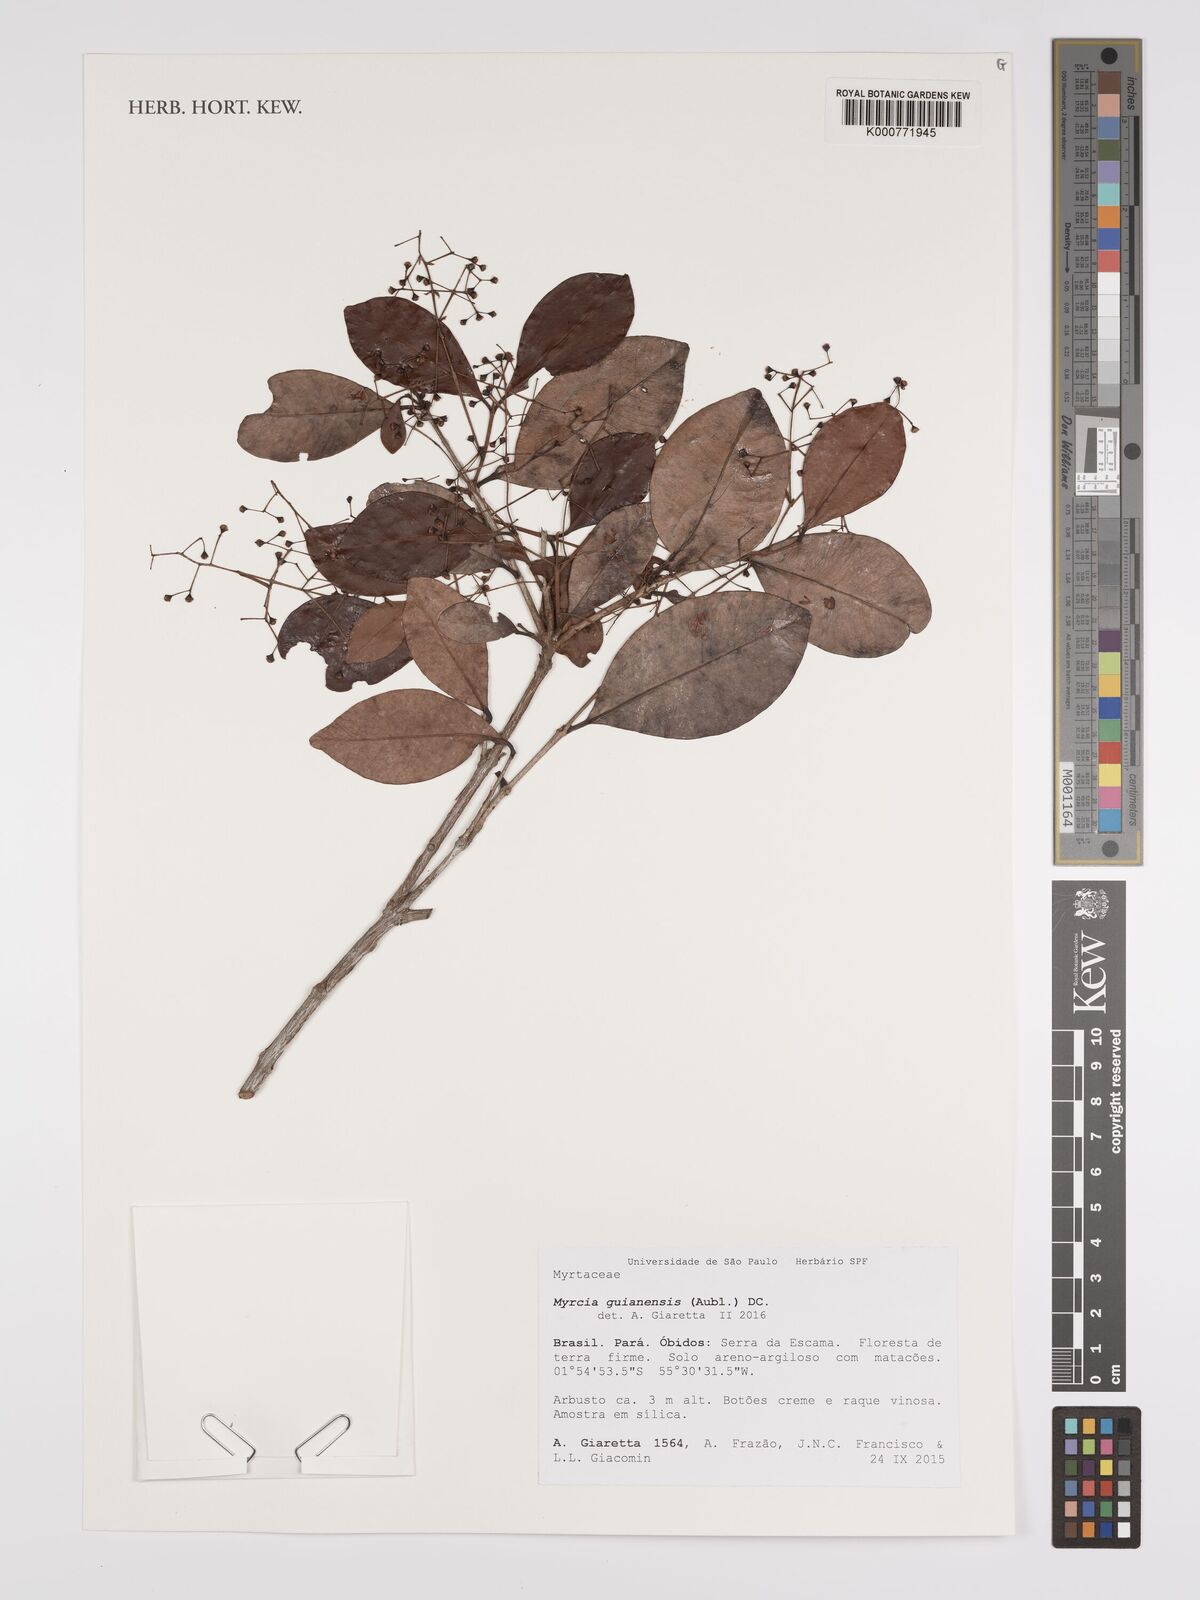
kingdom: Plantae
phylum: Tracheophyta
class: Magnoliopsida
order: Myrtales
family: Myrtaceae
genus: Myrcia
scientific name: Myrcia guianensis
